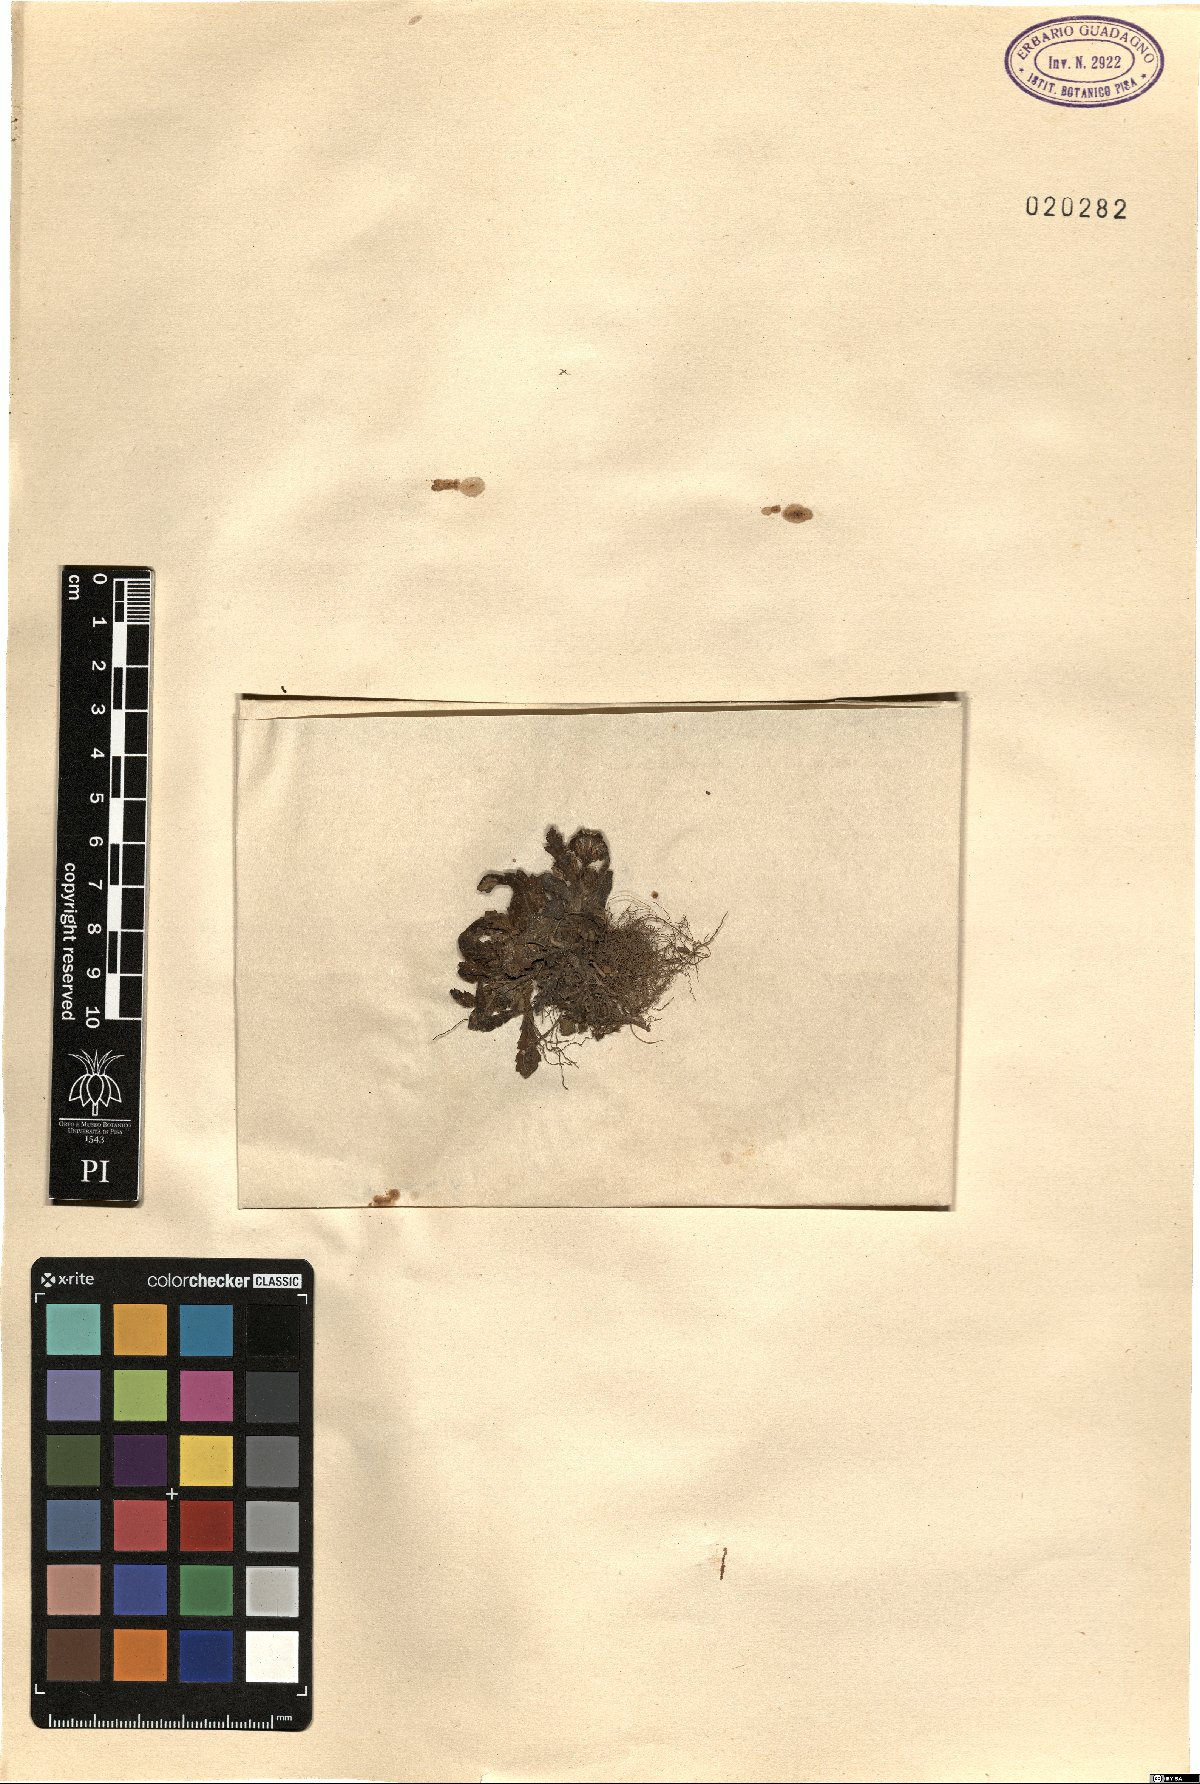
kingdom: Plantae
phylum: Tracheophyta
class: Magnoliopsida
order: Asterales
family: Asteraceae
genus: Senecio
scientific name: Senecio
